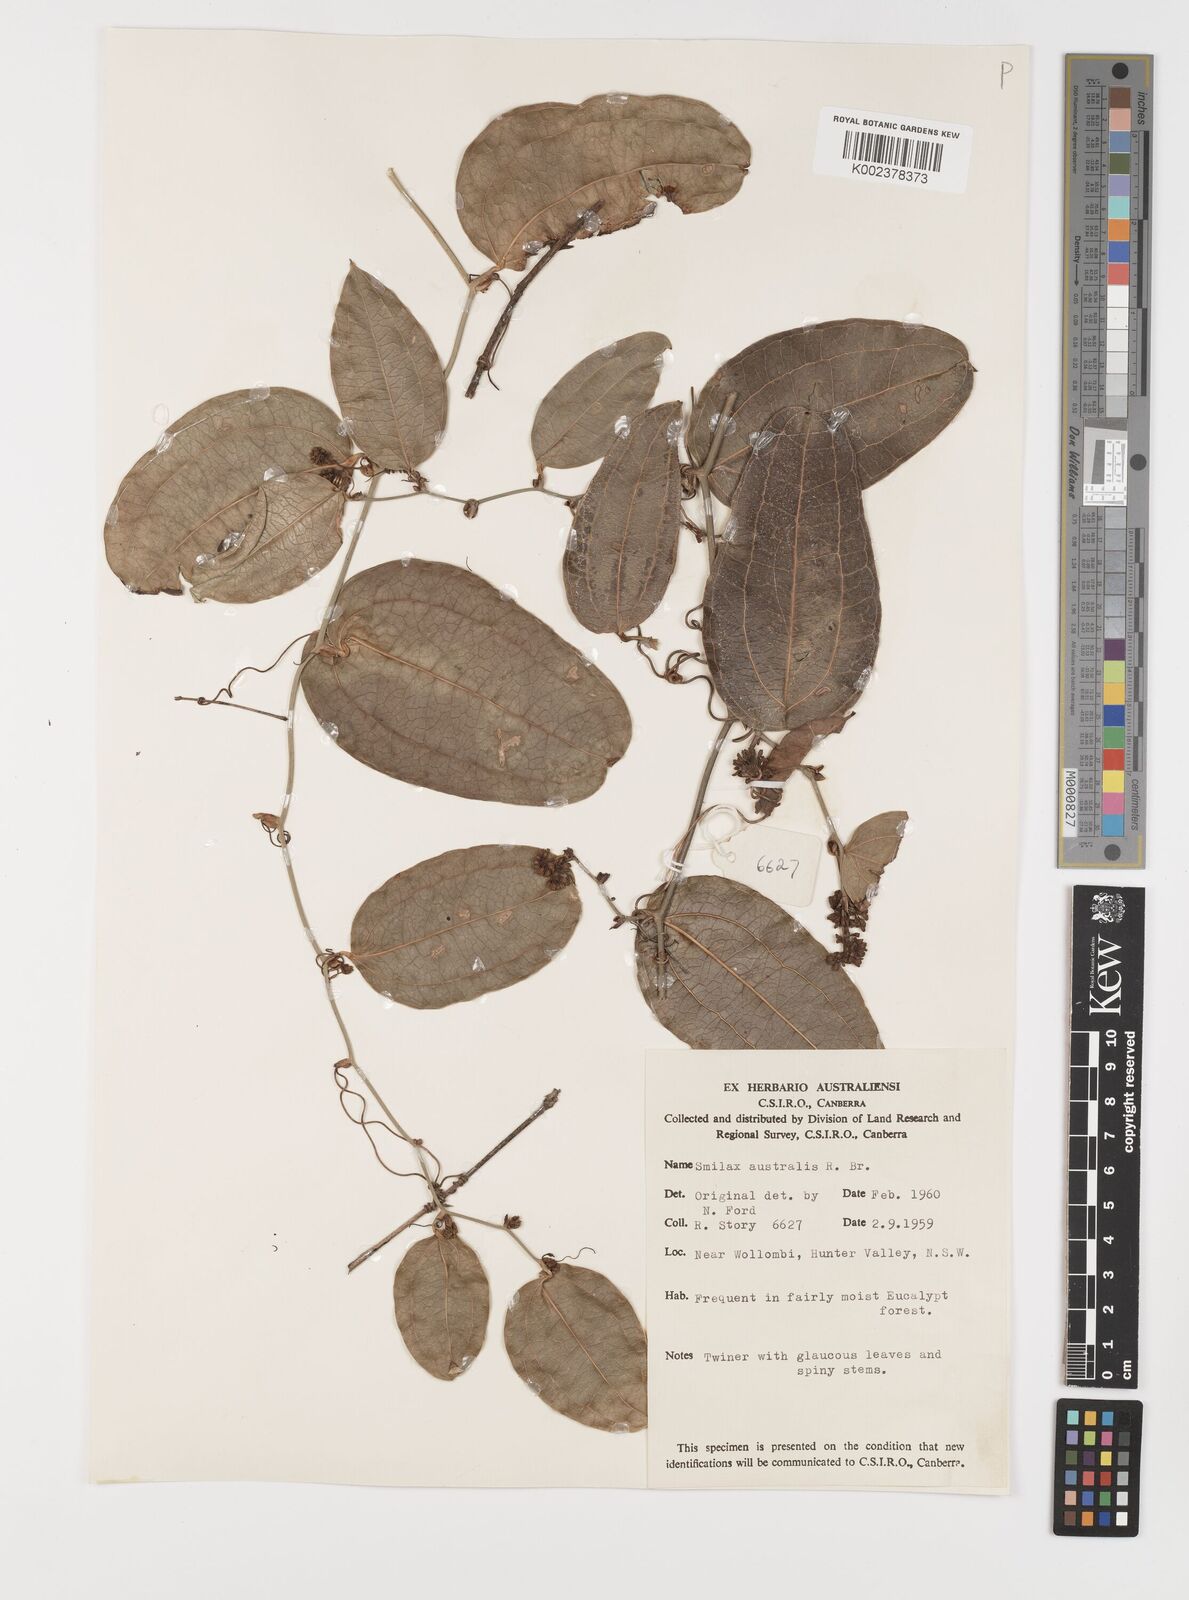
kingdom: Plantae
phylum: Tracheophyta
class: Liliopsida
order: Liliales
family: Smilacaceae
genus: Smilax
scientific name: Smilax australis
